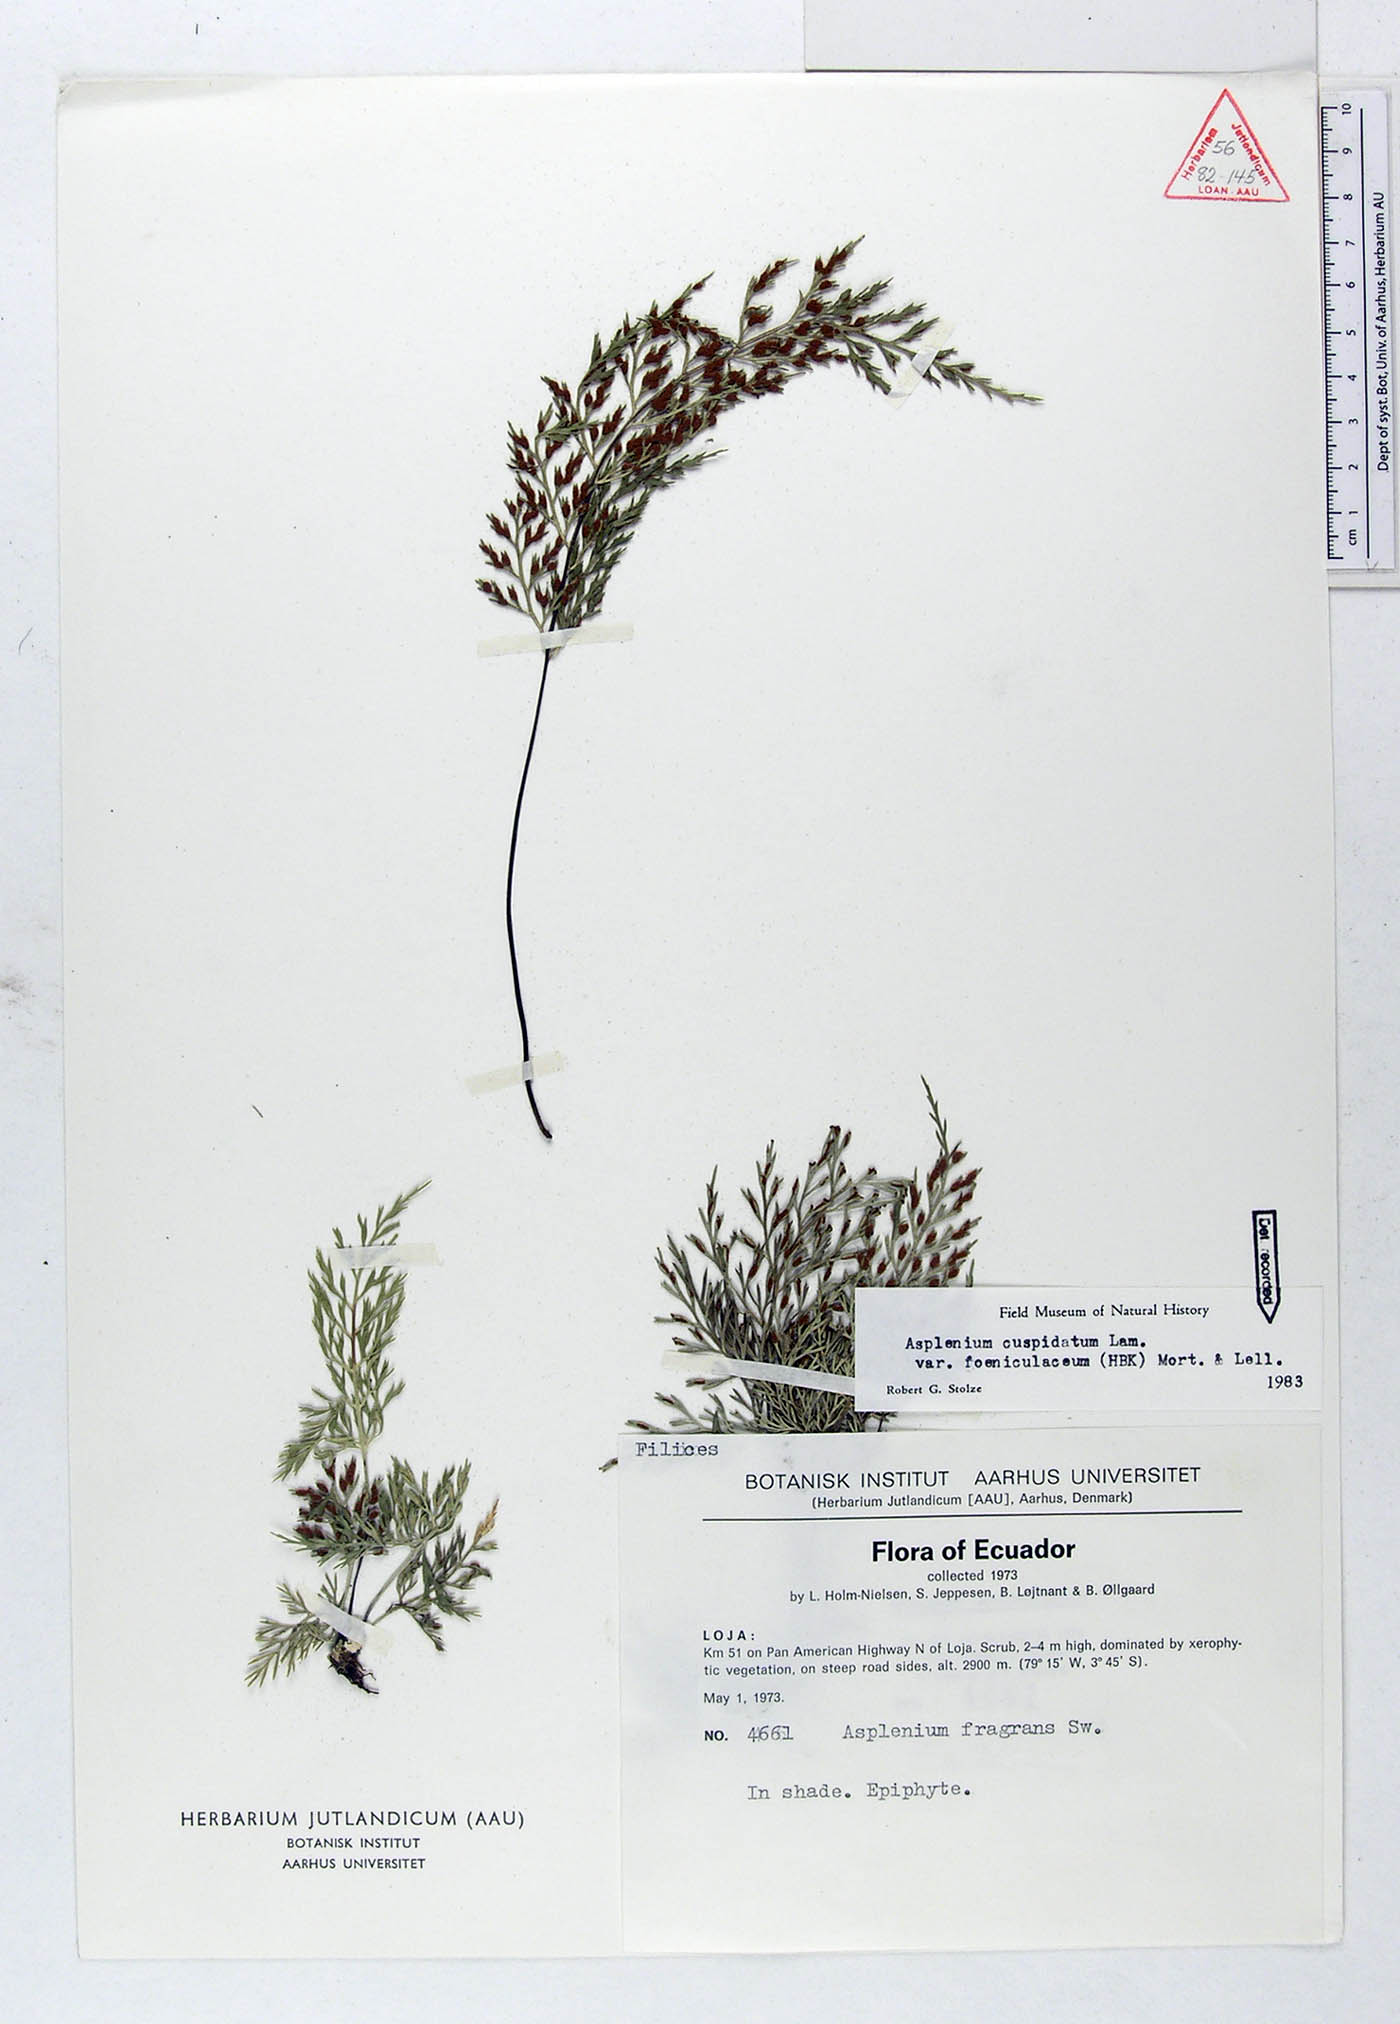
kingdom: Plantae
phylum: Tracheophyta
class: Polypodiopsida
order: Polypodiales
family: Aspleniaceae
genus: Asplenium
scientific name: Asplenium fragrans
